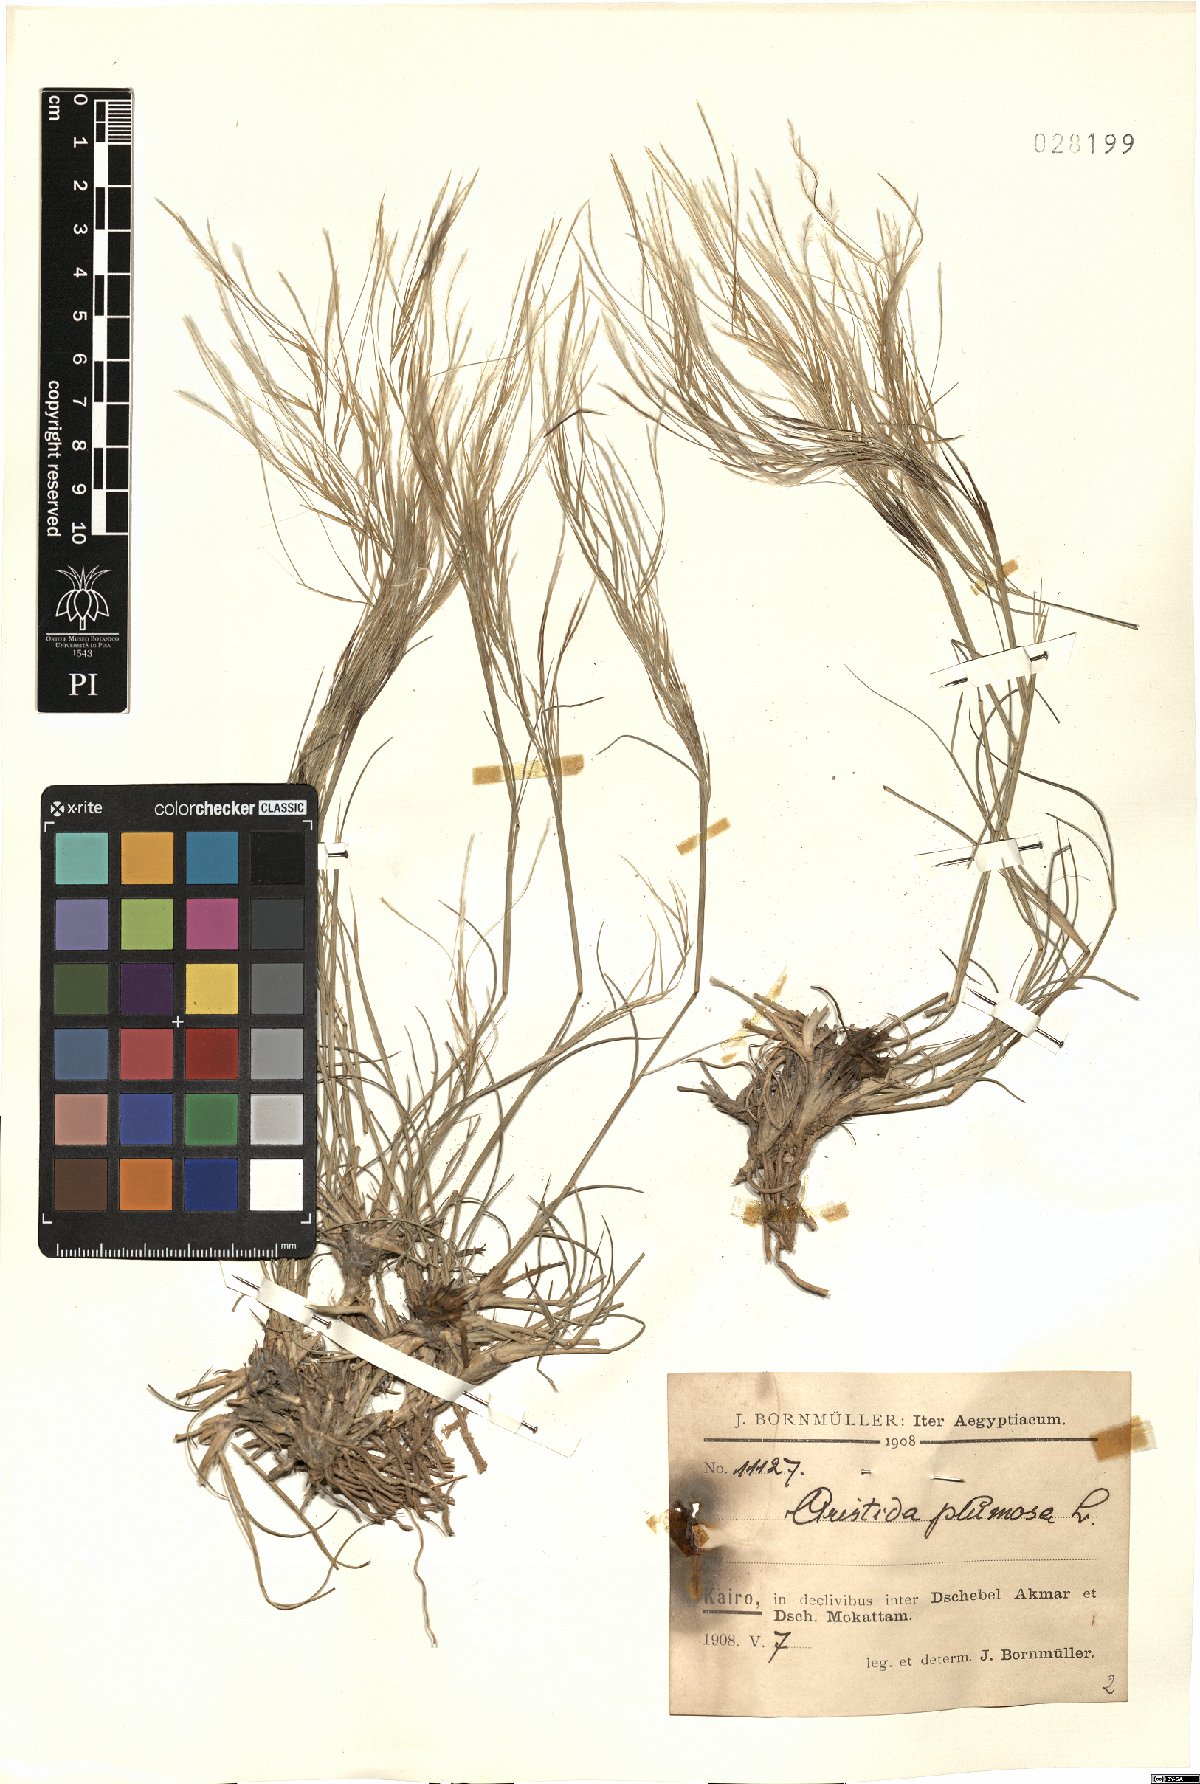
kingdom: Plantae
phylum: Tracheophyta
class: Liliopsida
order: Poales
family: Poaceae
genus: Stipagrostis
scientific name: Stipagrostis plumosa
